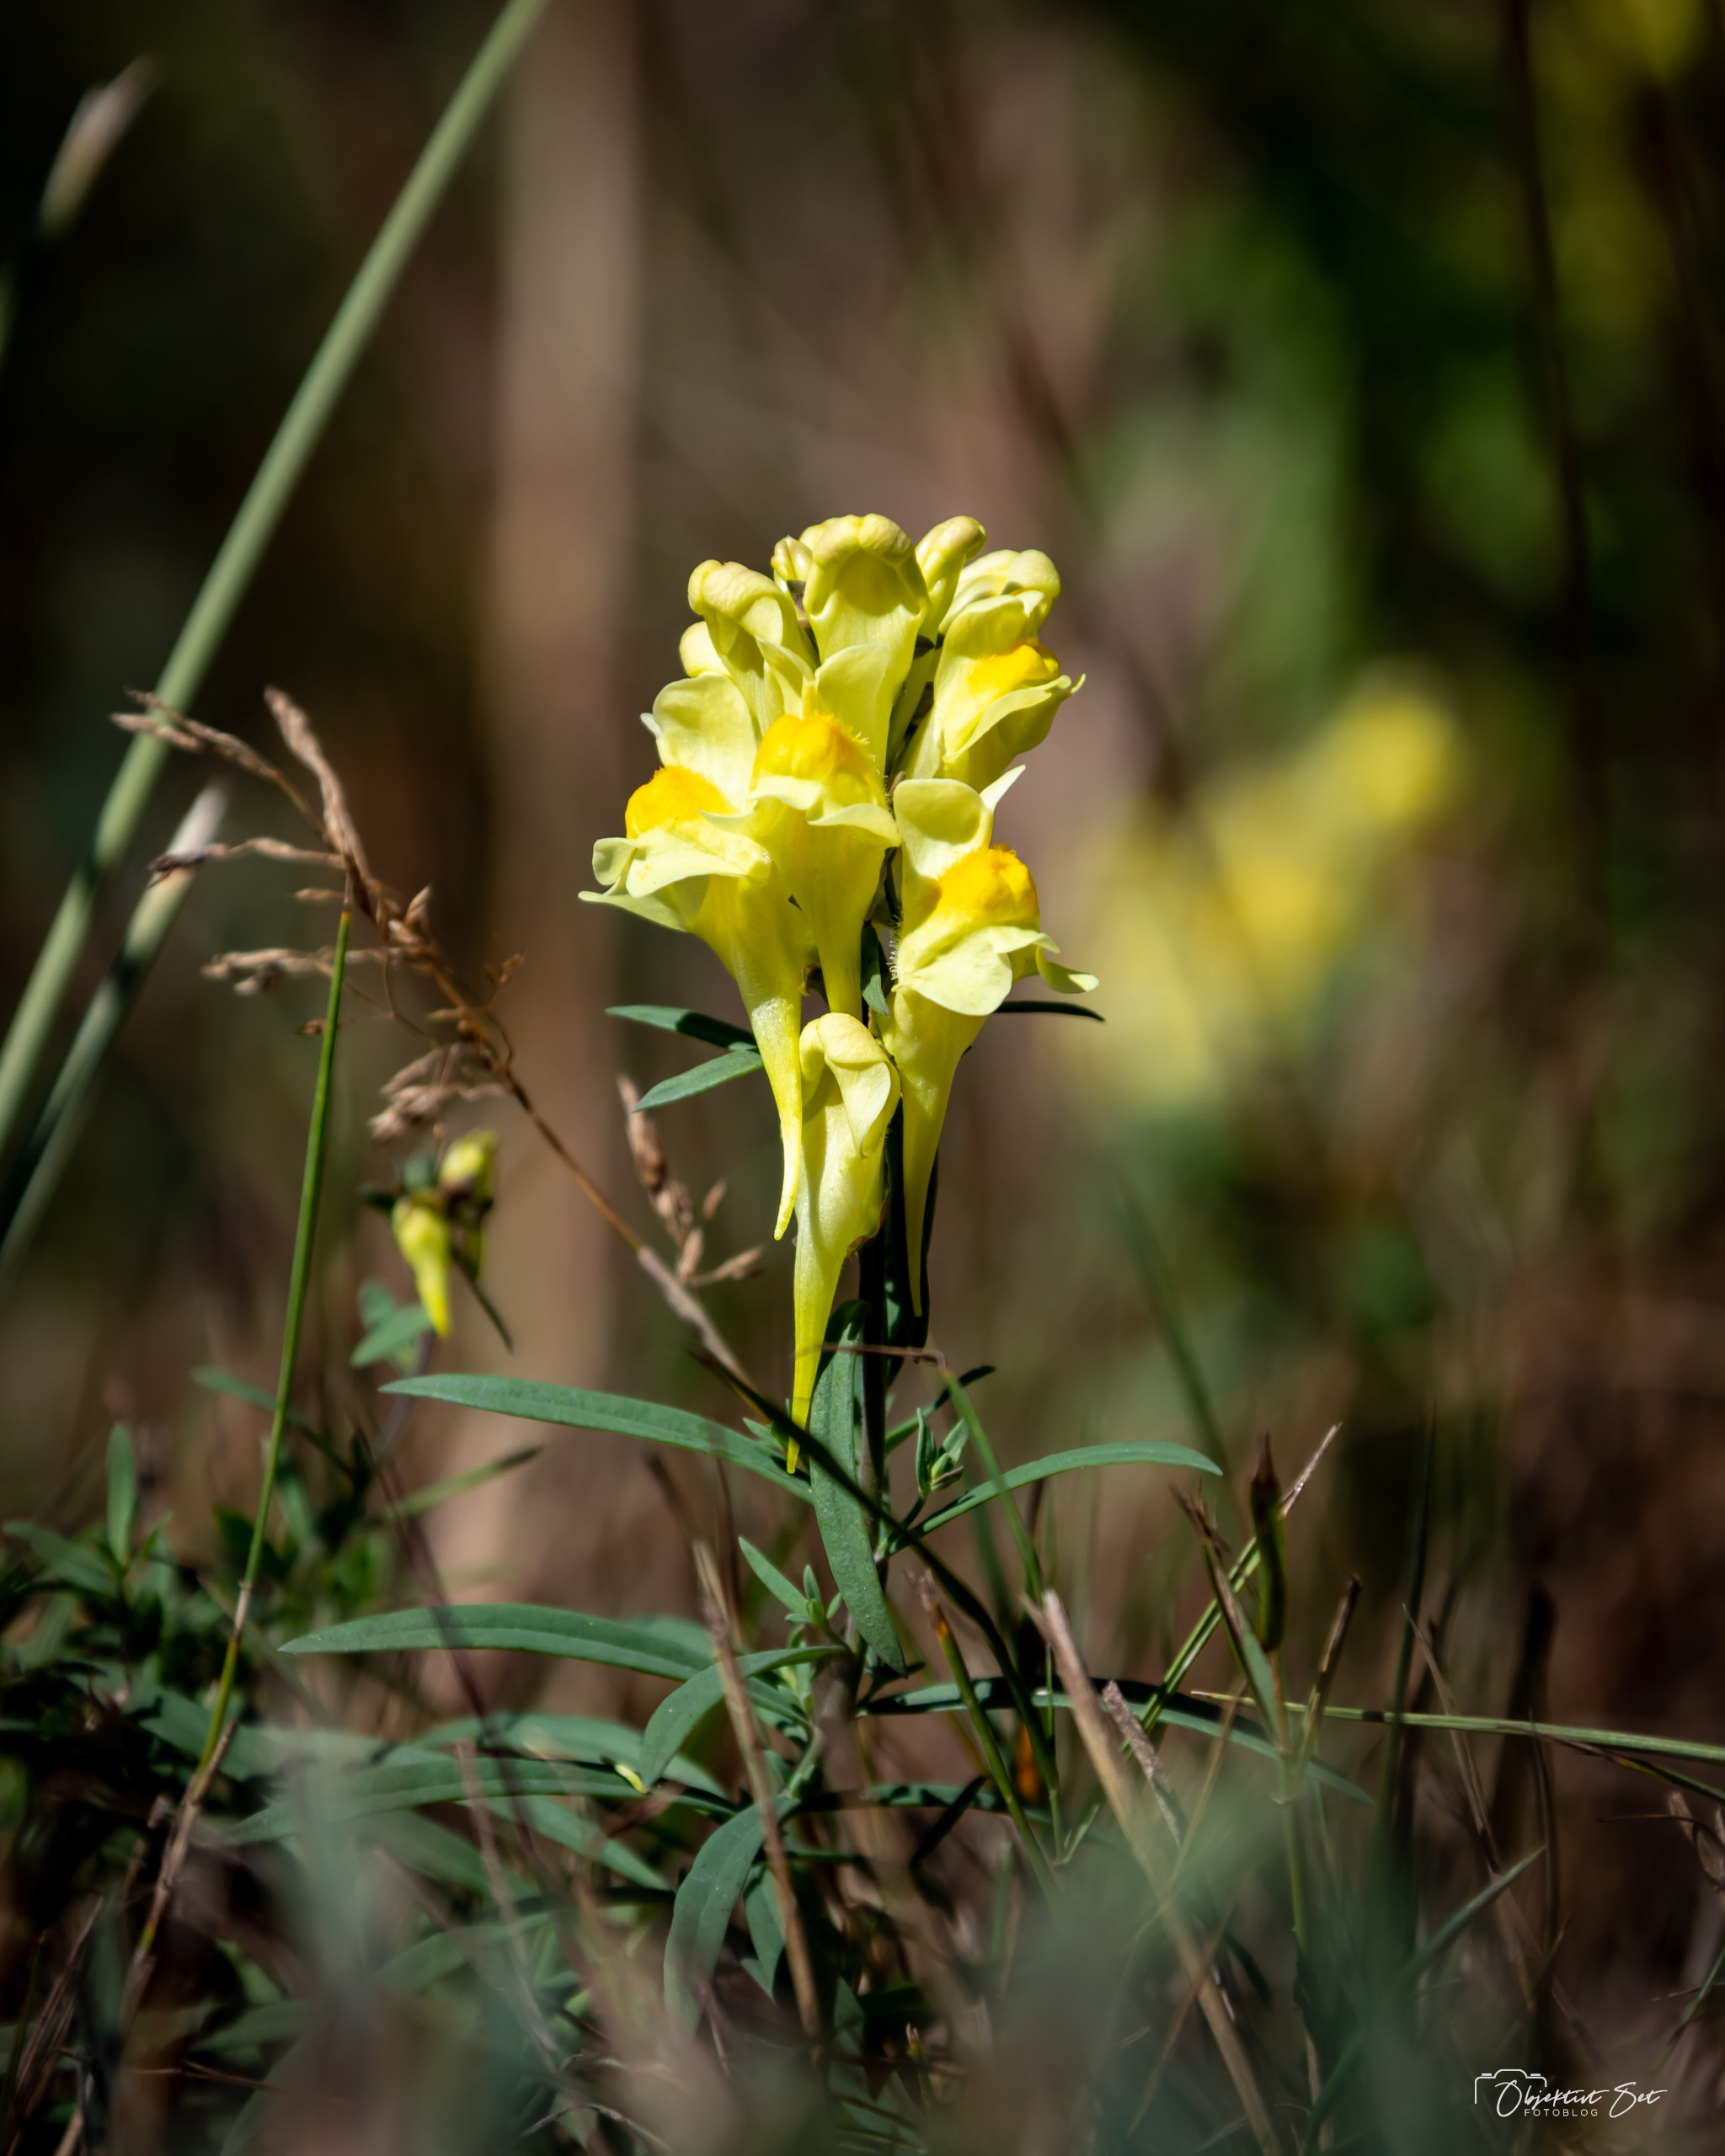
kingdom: Plantae
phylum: Tracheophyta
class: Magnoliopsida
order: Lamiales
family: Plantaginaceae
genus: Linaria
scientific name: Linaria vulgaris
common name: Almindelig torskemund
